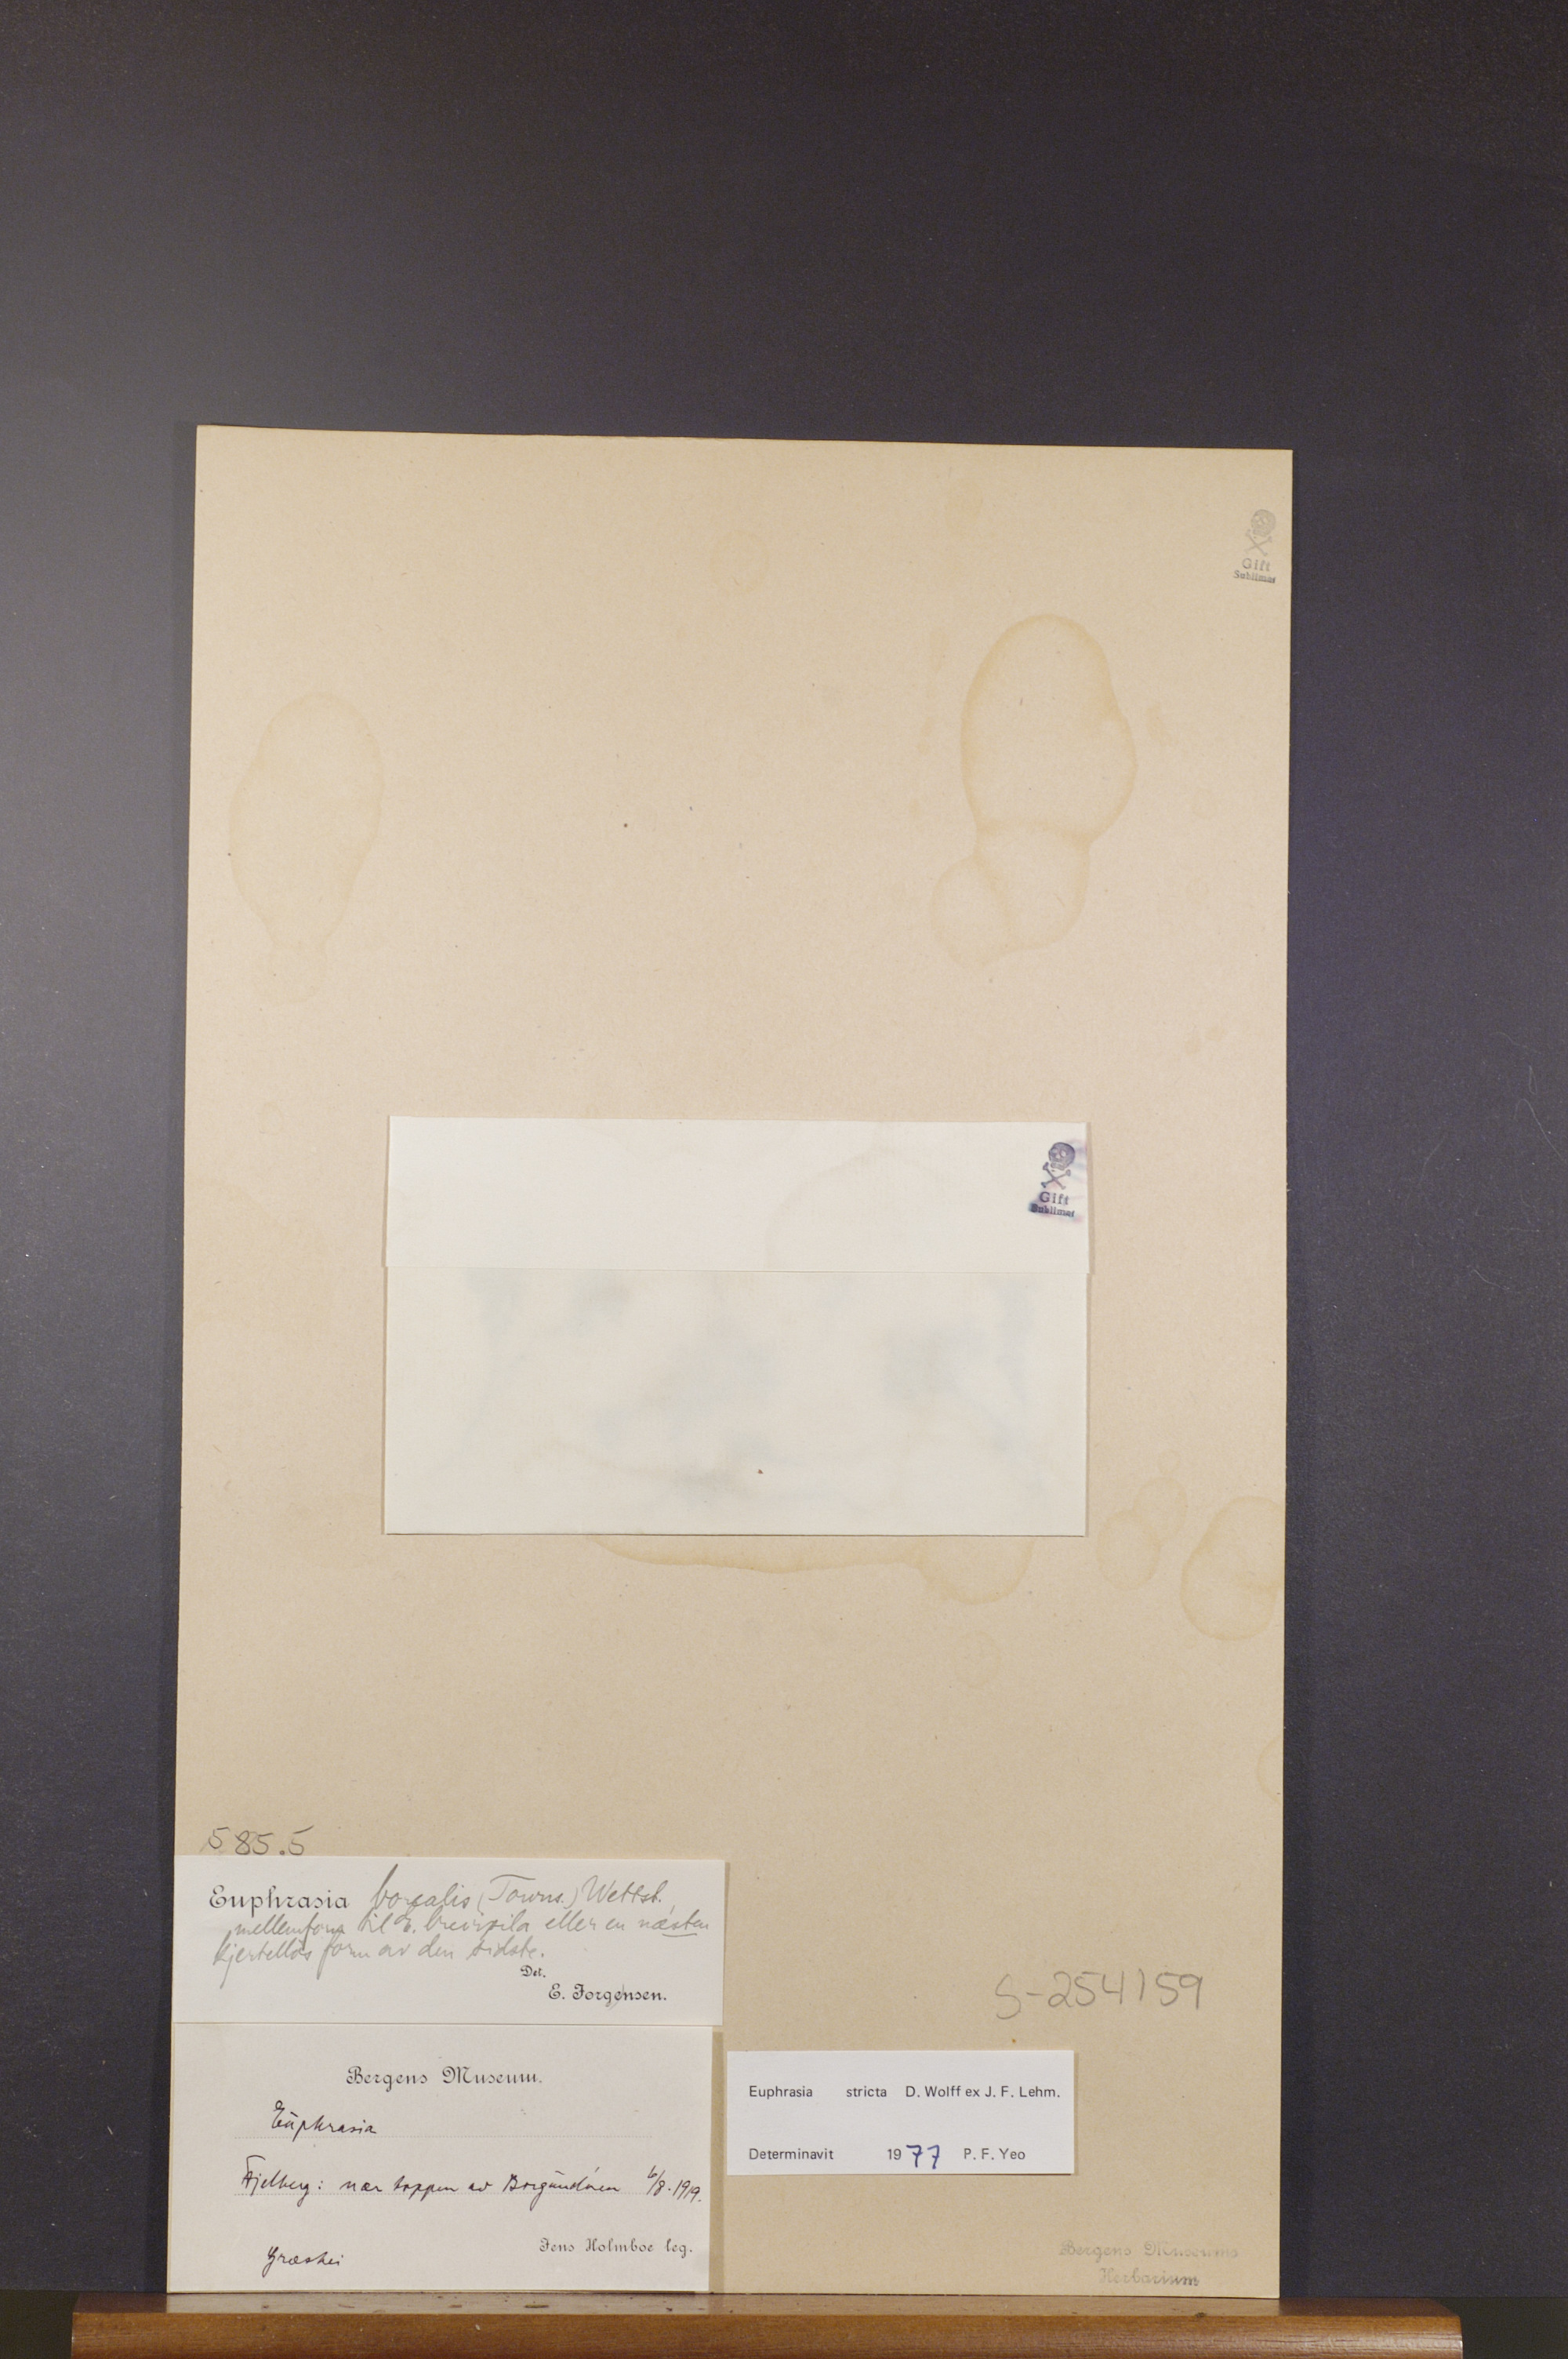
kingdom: Plantae
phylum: Tracheophyta
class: Magnoliopsida
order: Lamiales
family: Orobanchaceae
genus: Euphrasia
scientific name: Euphrasia stricta
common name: Drug eyebright
